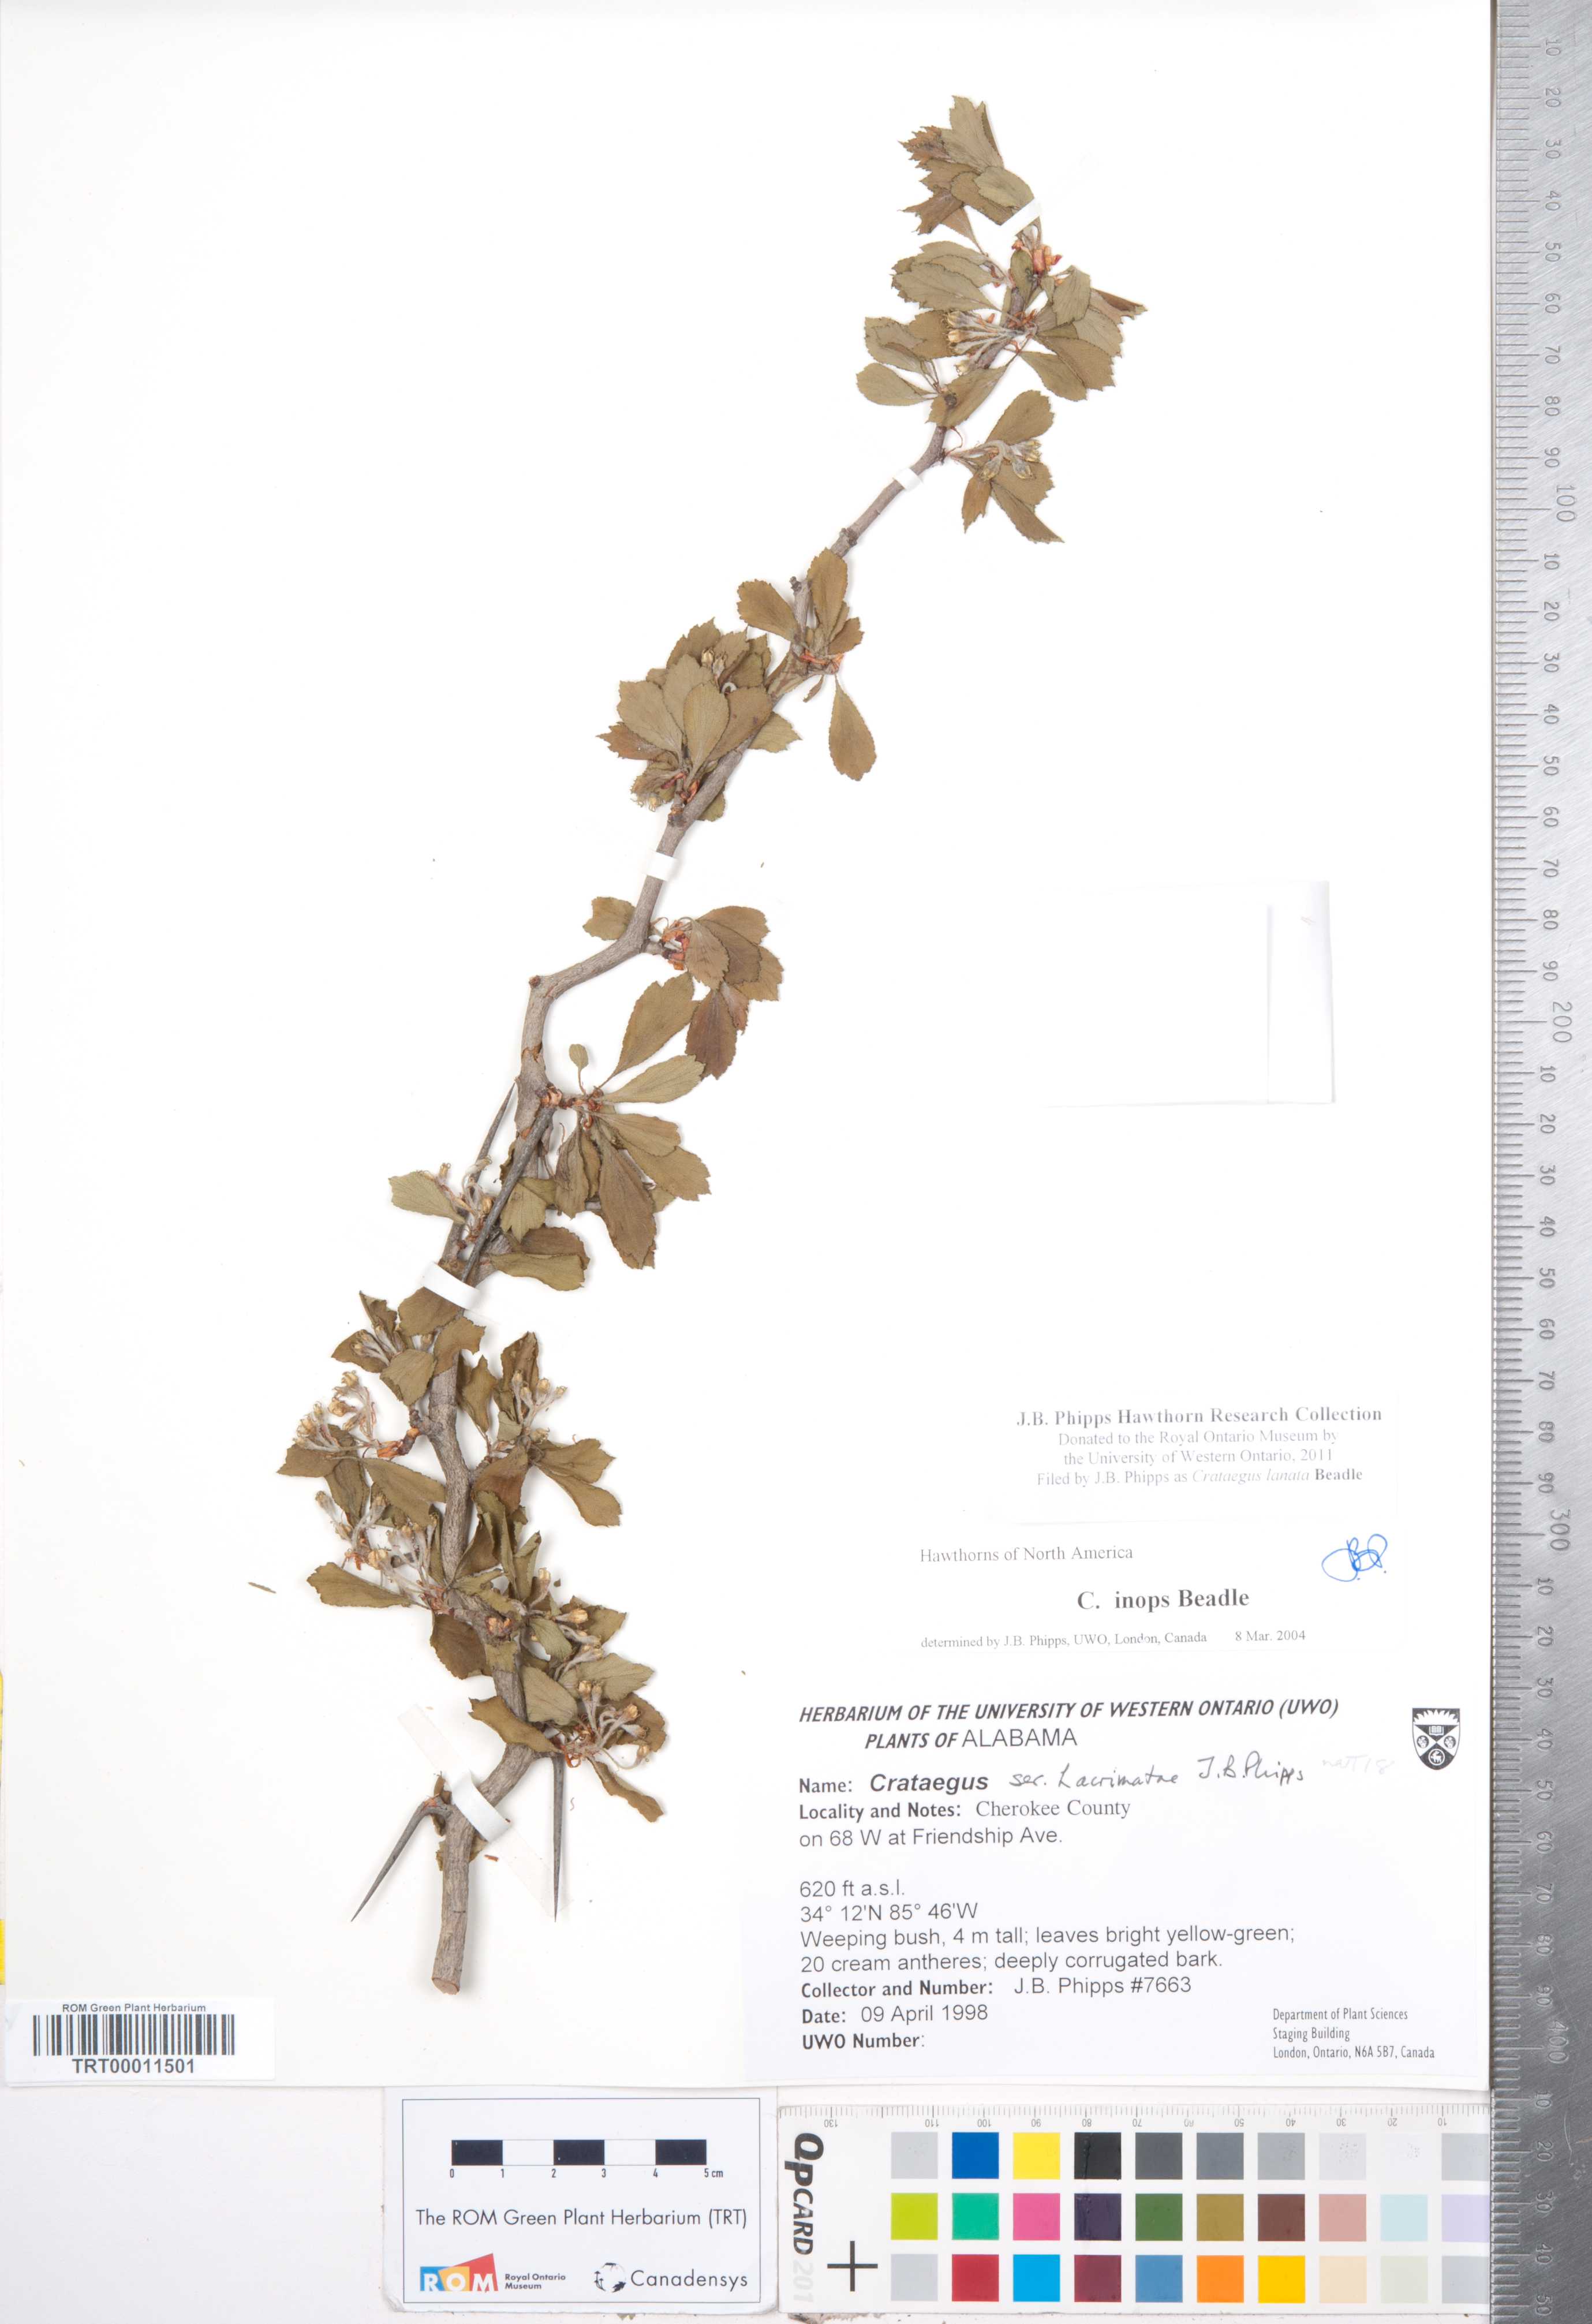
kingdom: Plantae
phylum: Tracheophyta
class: Magnoliopsida
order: Rosales
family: Rosaceae
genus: Crataegus
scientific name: Crataegus lassa
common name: Florida hawthorn
